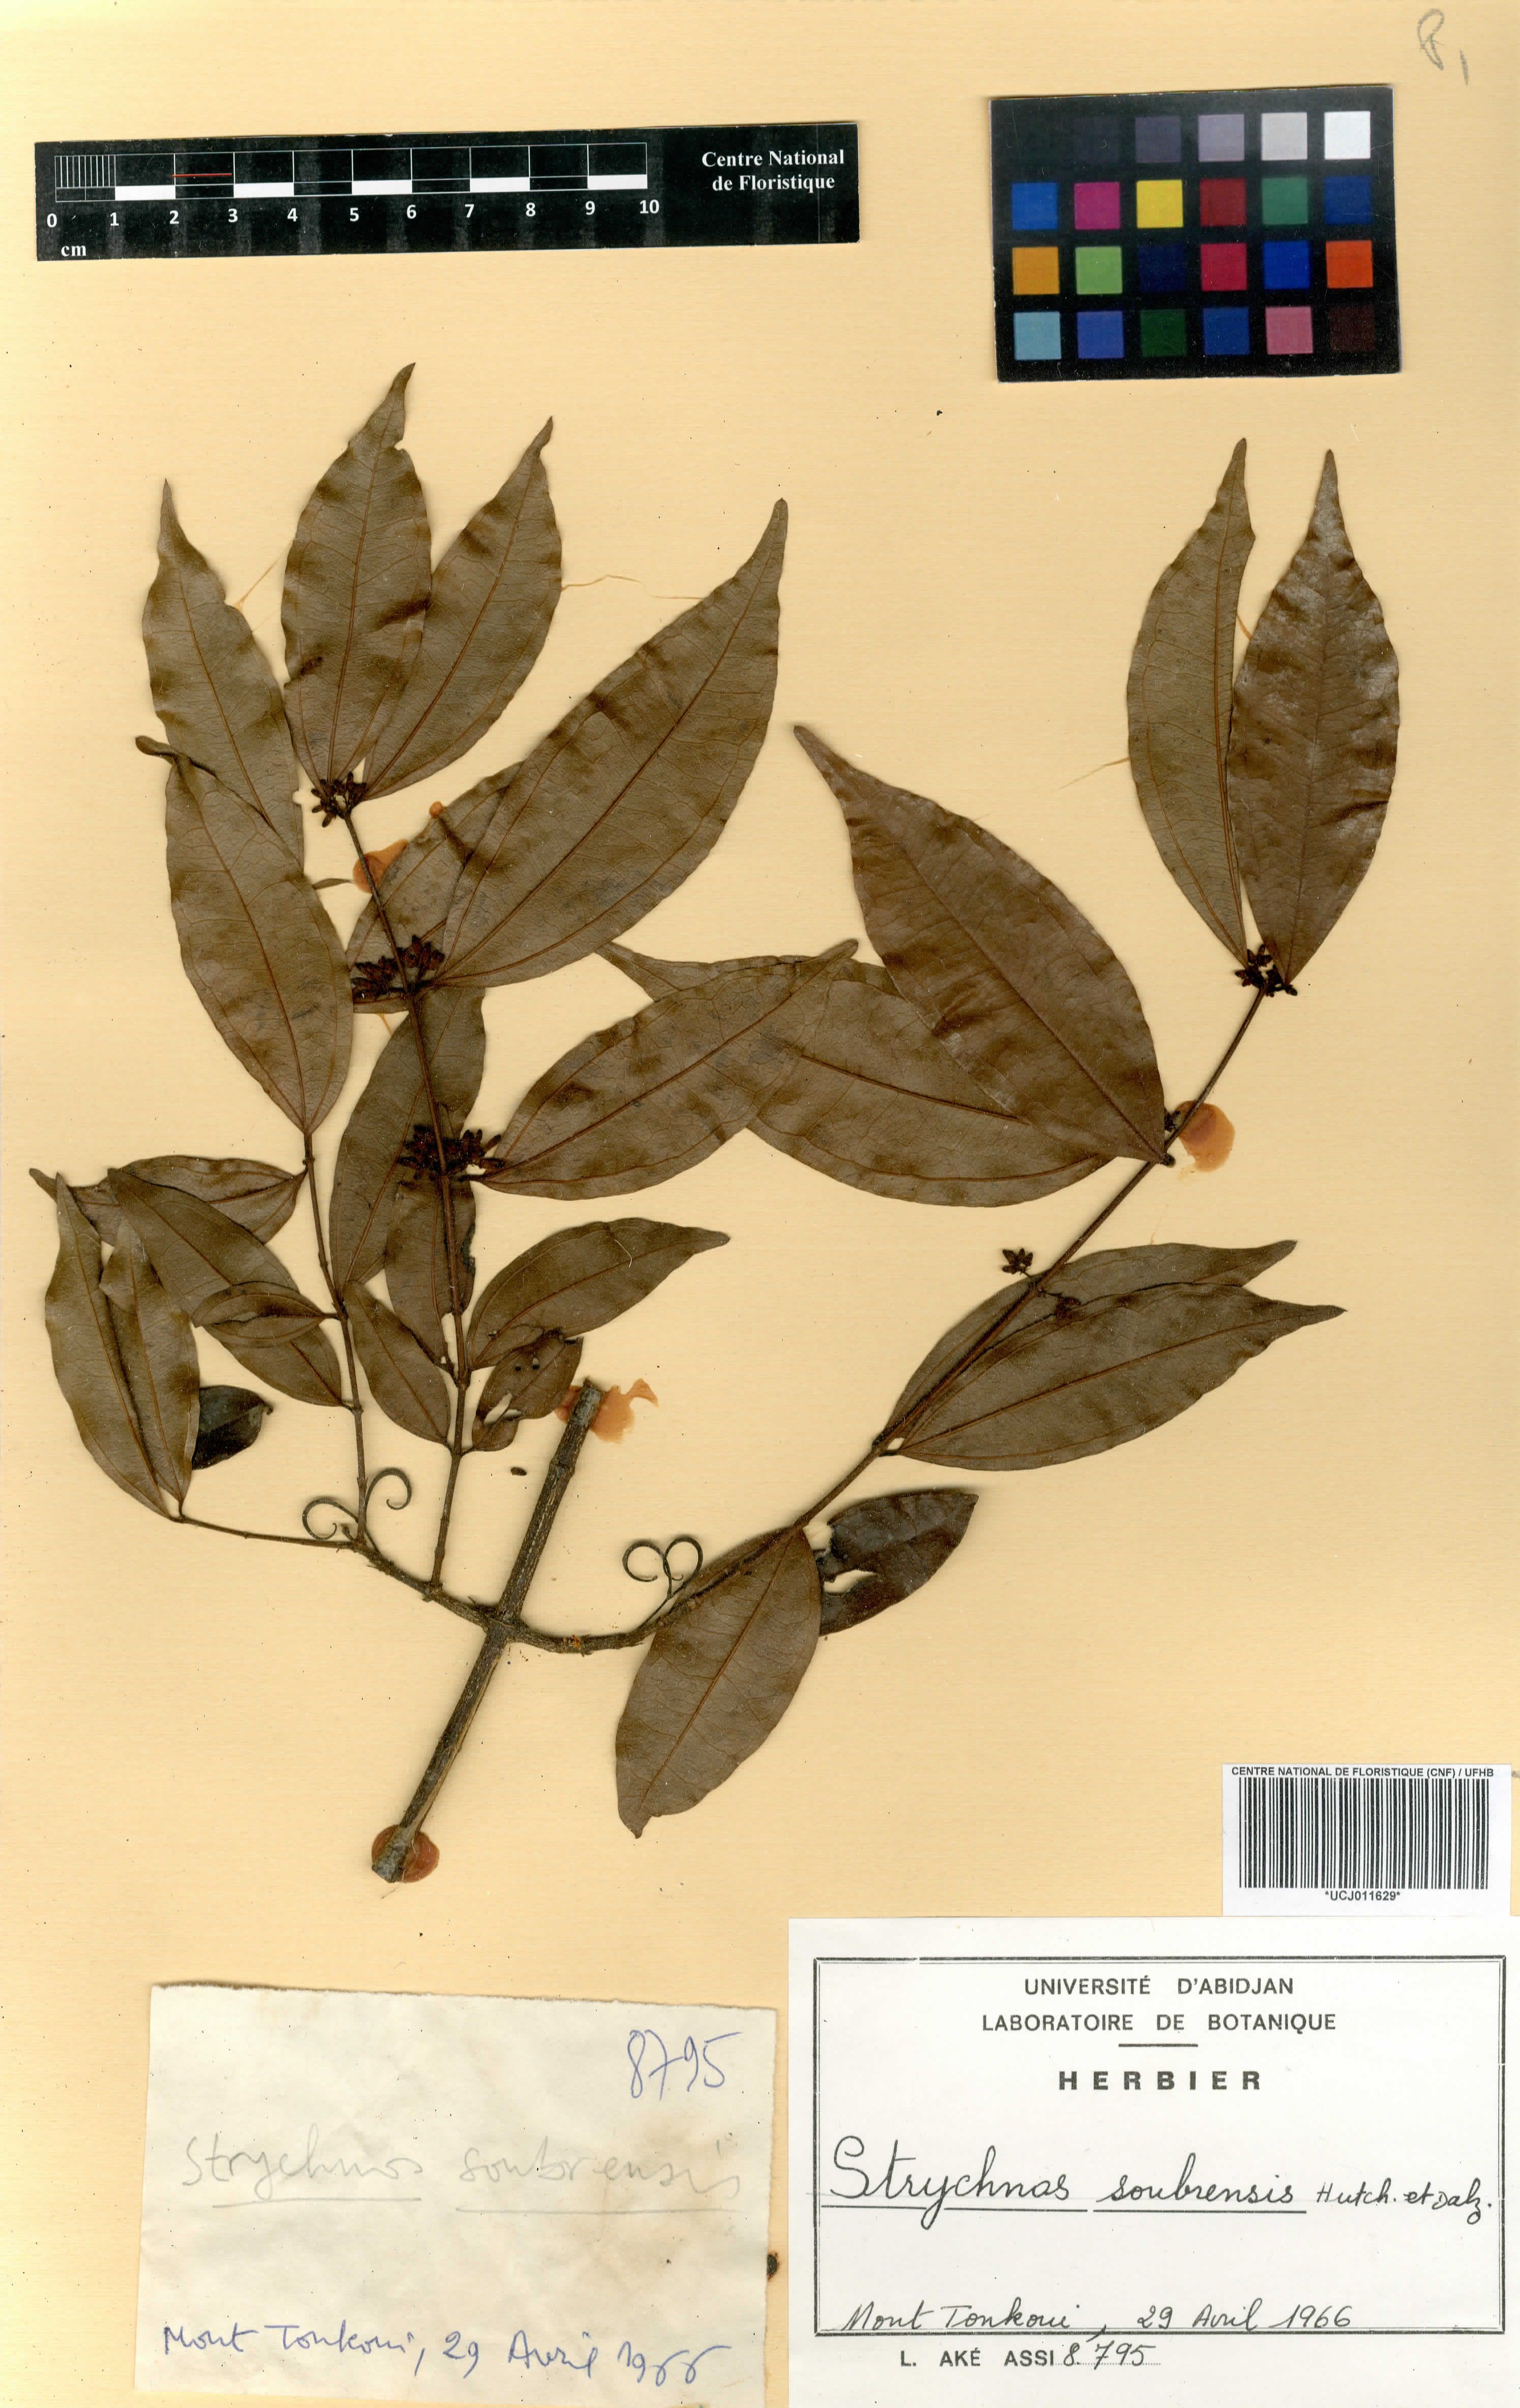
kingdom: Plantae
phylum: Tracheophyta
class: Magnoliopsida
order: Gentianales
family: Loganiaceae
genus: Strychnos
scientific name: Strychnos soubrensis
